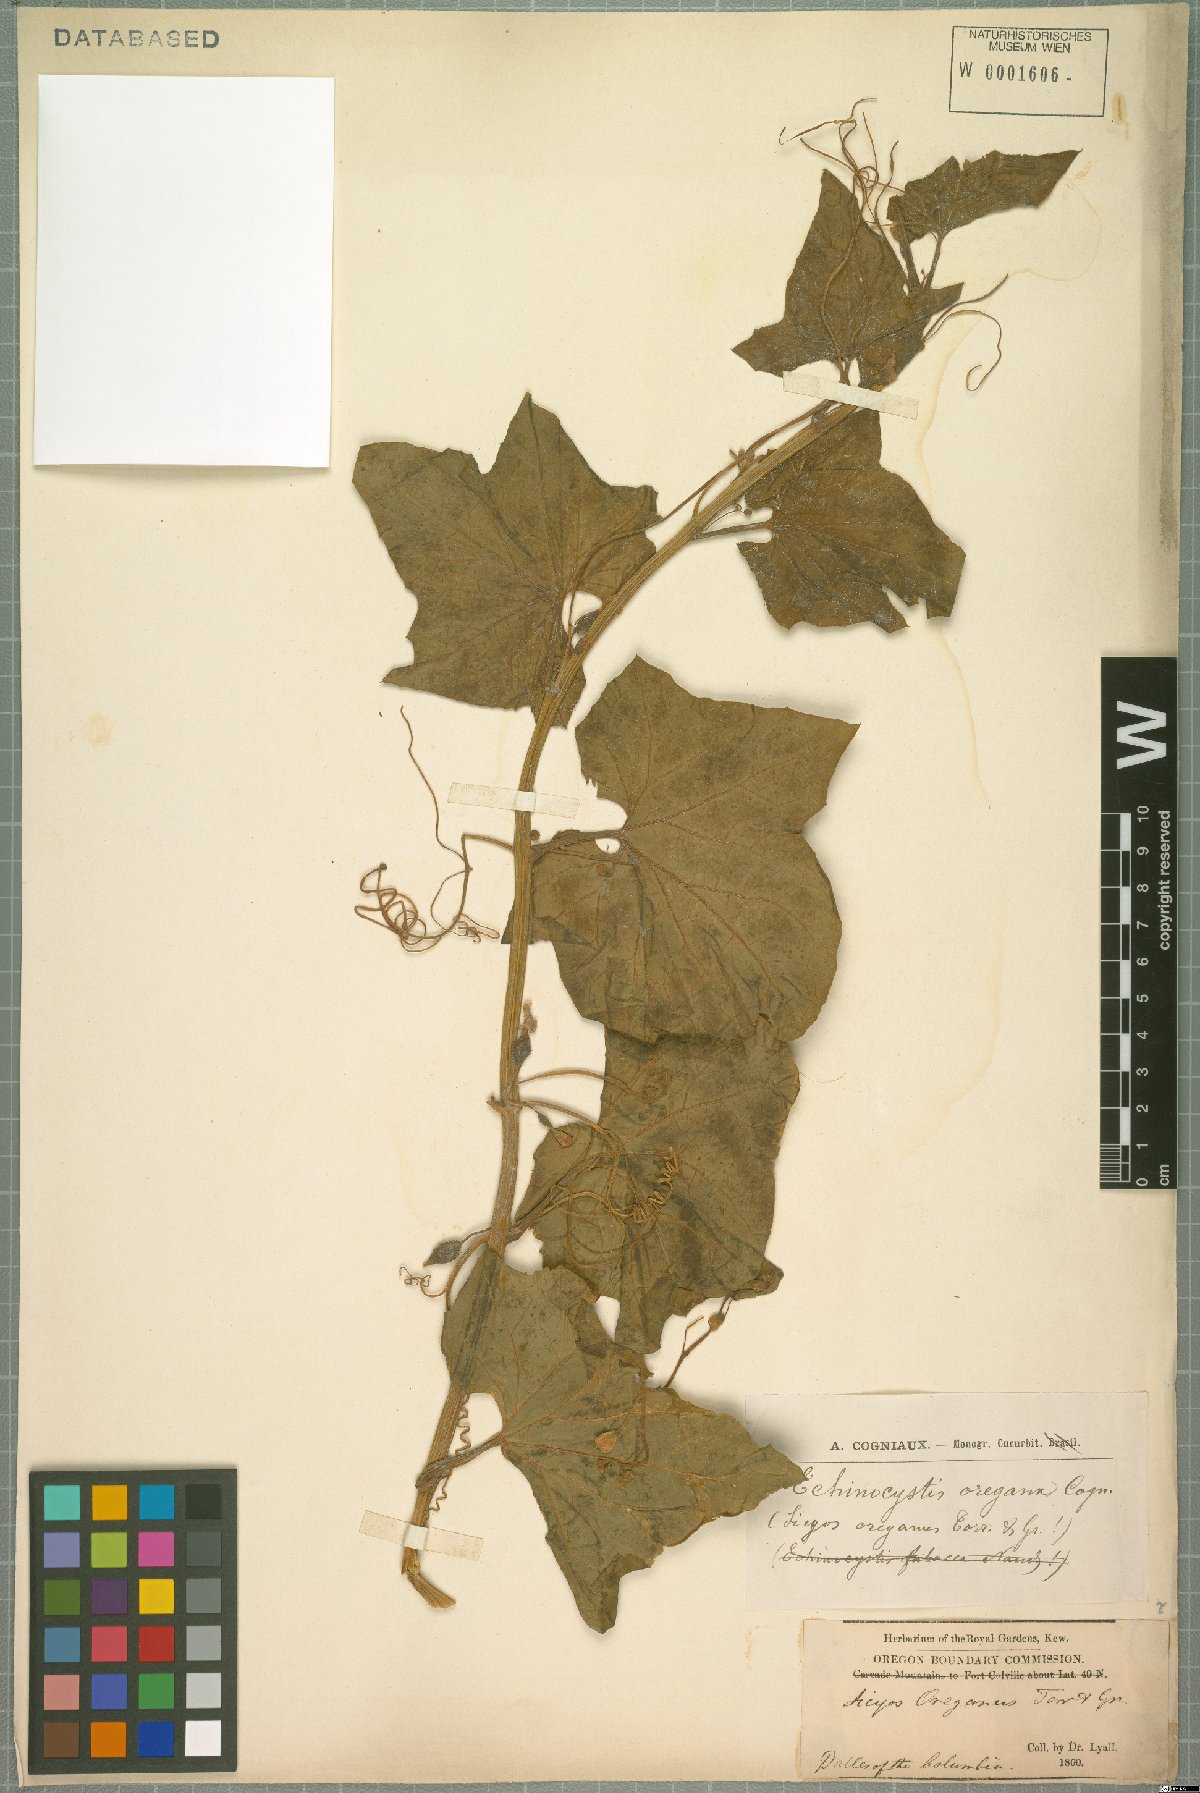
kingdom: Plantae
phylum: Tracheophyta
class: Magnoliopsida
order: Cucurbitales
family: Cucurbitaceae
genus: Marah
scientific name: Marah oregana
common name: Coastal manroot
